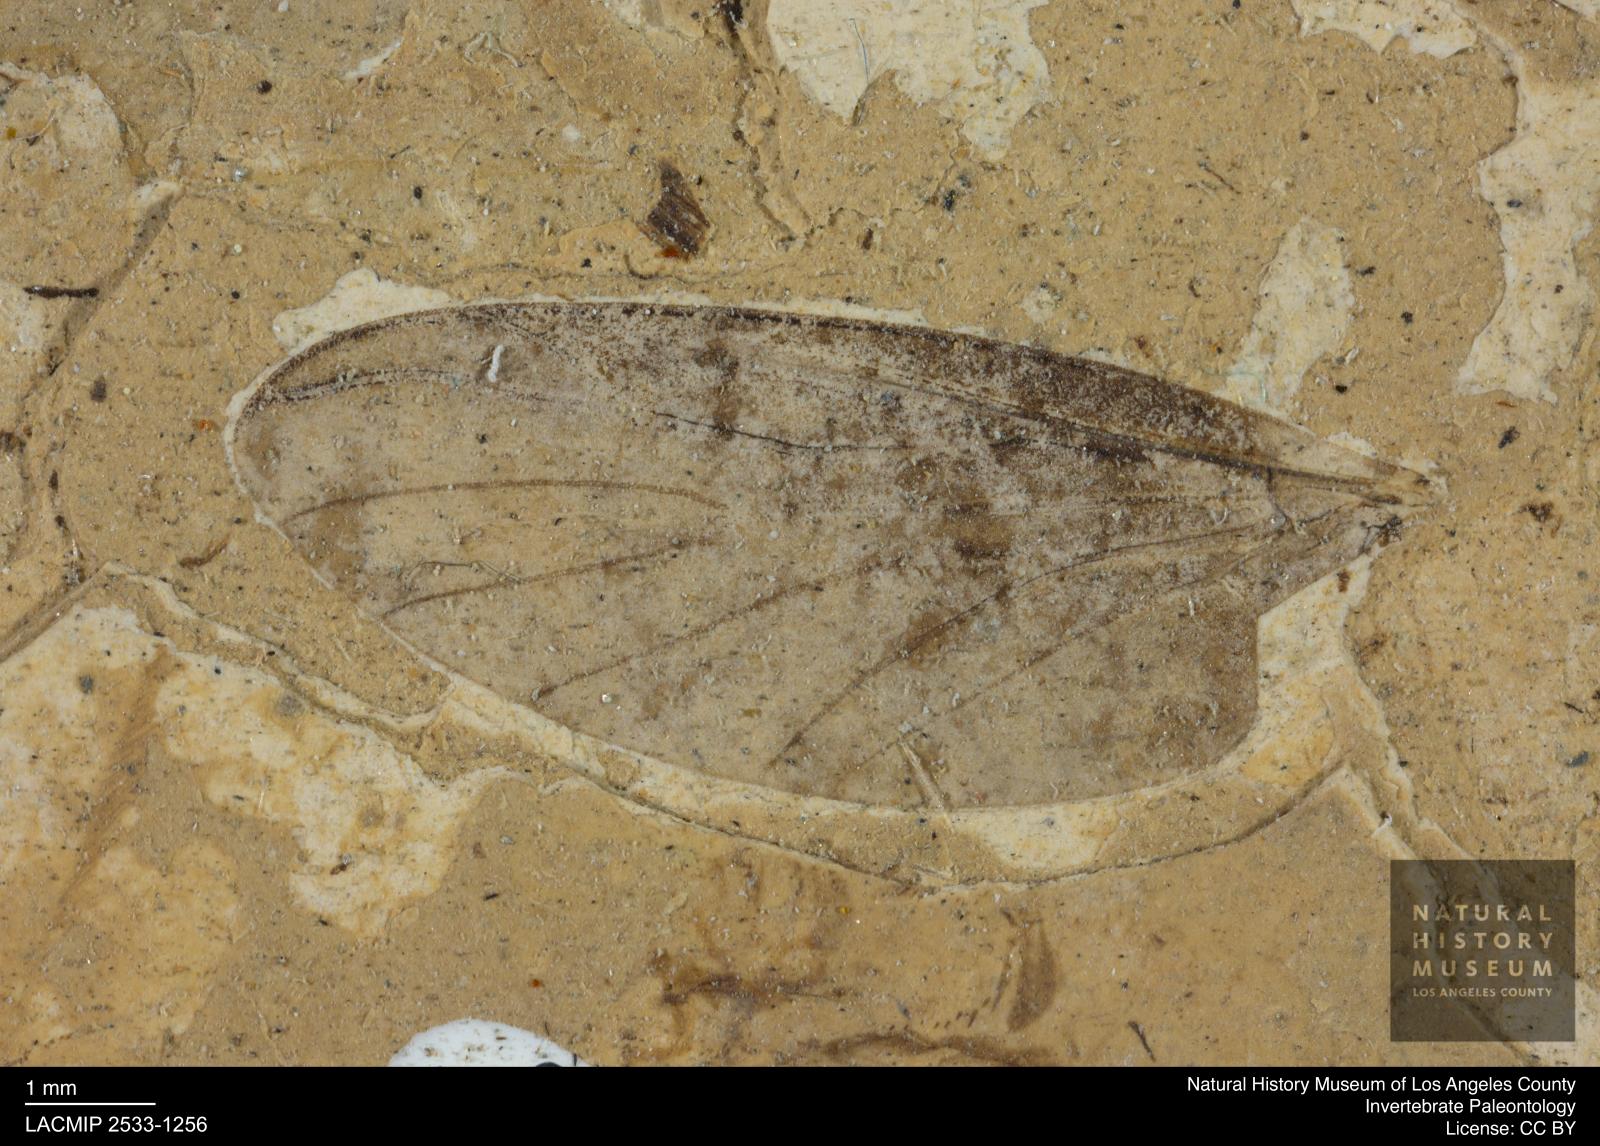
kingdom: Animalia
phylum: Arthropoda
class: Insecta
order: Diptera
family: Bibionidae
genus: Plecia
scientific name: Plecia
